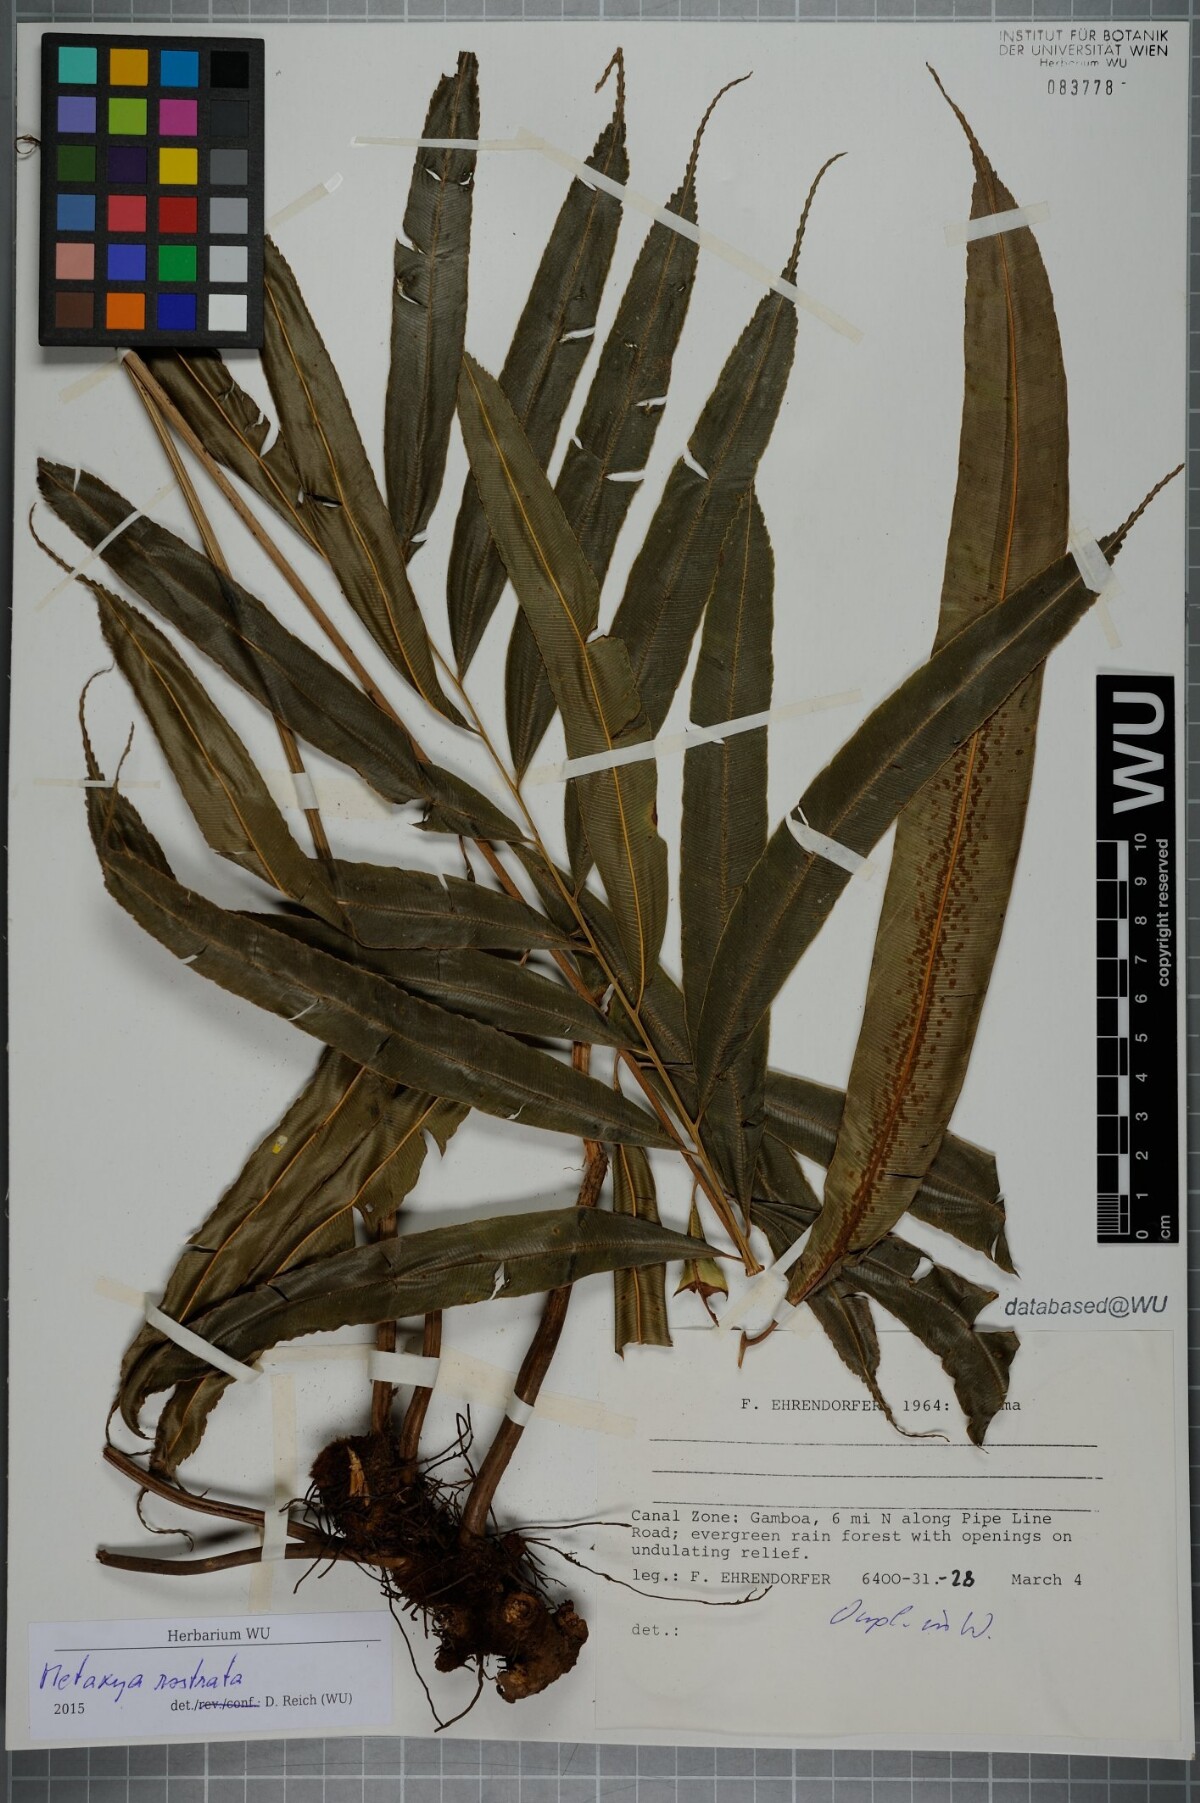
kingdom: Plantae
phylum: Tracheophyta
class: Polypodiopsida
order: Cyatheales
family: Metaxyaceae
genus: Metaxya
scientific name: Metaxya rostrata
